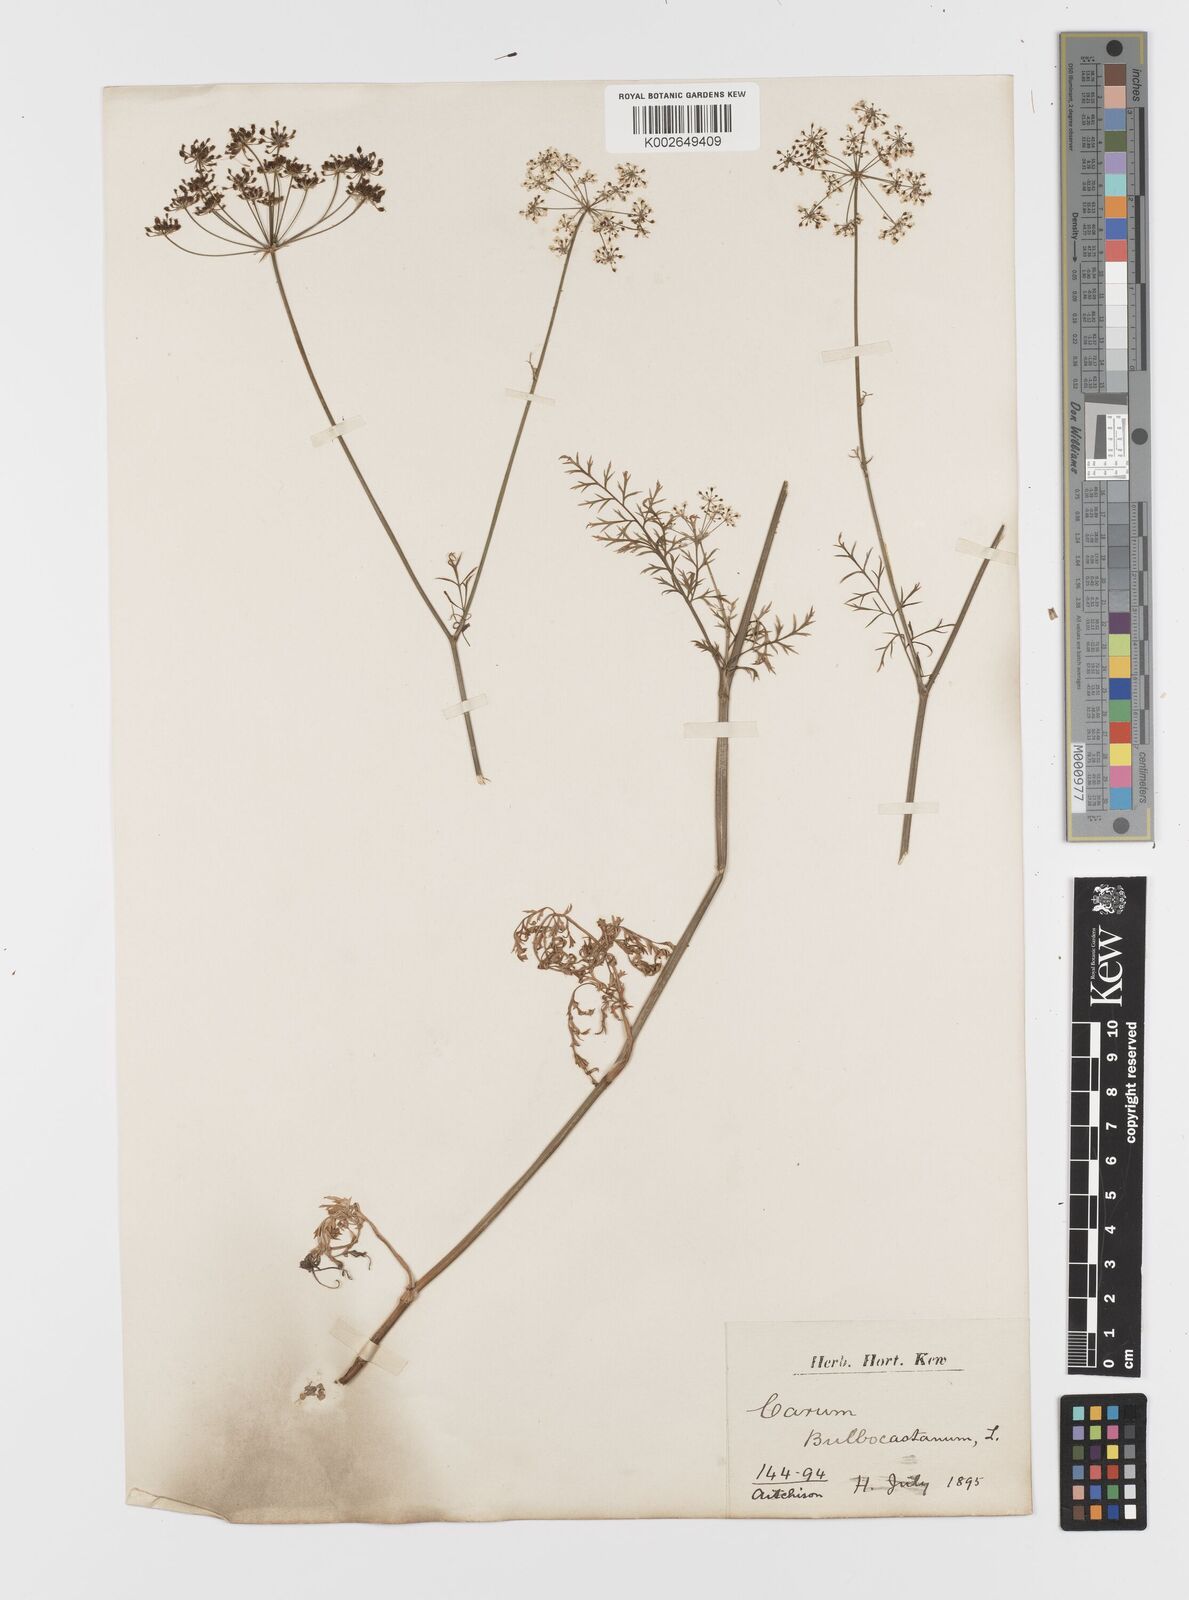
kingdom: Plantae
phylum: Tracheophyta
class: Magnoliopsida
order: Apiales
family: Apiaceae
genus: Bunium
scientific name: Bunium bulbocastanum
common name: Great pignut
